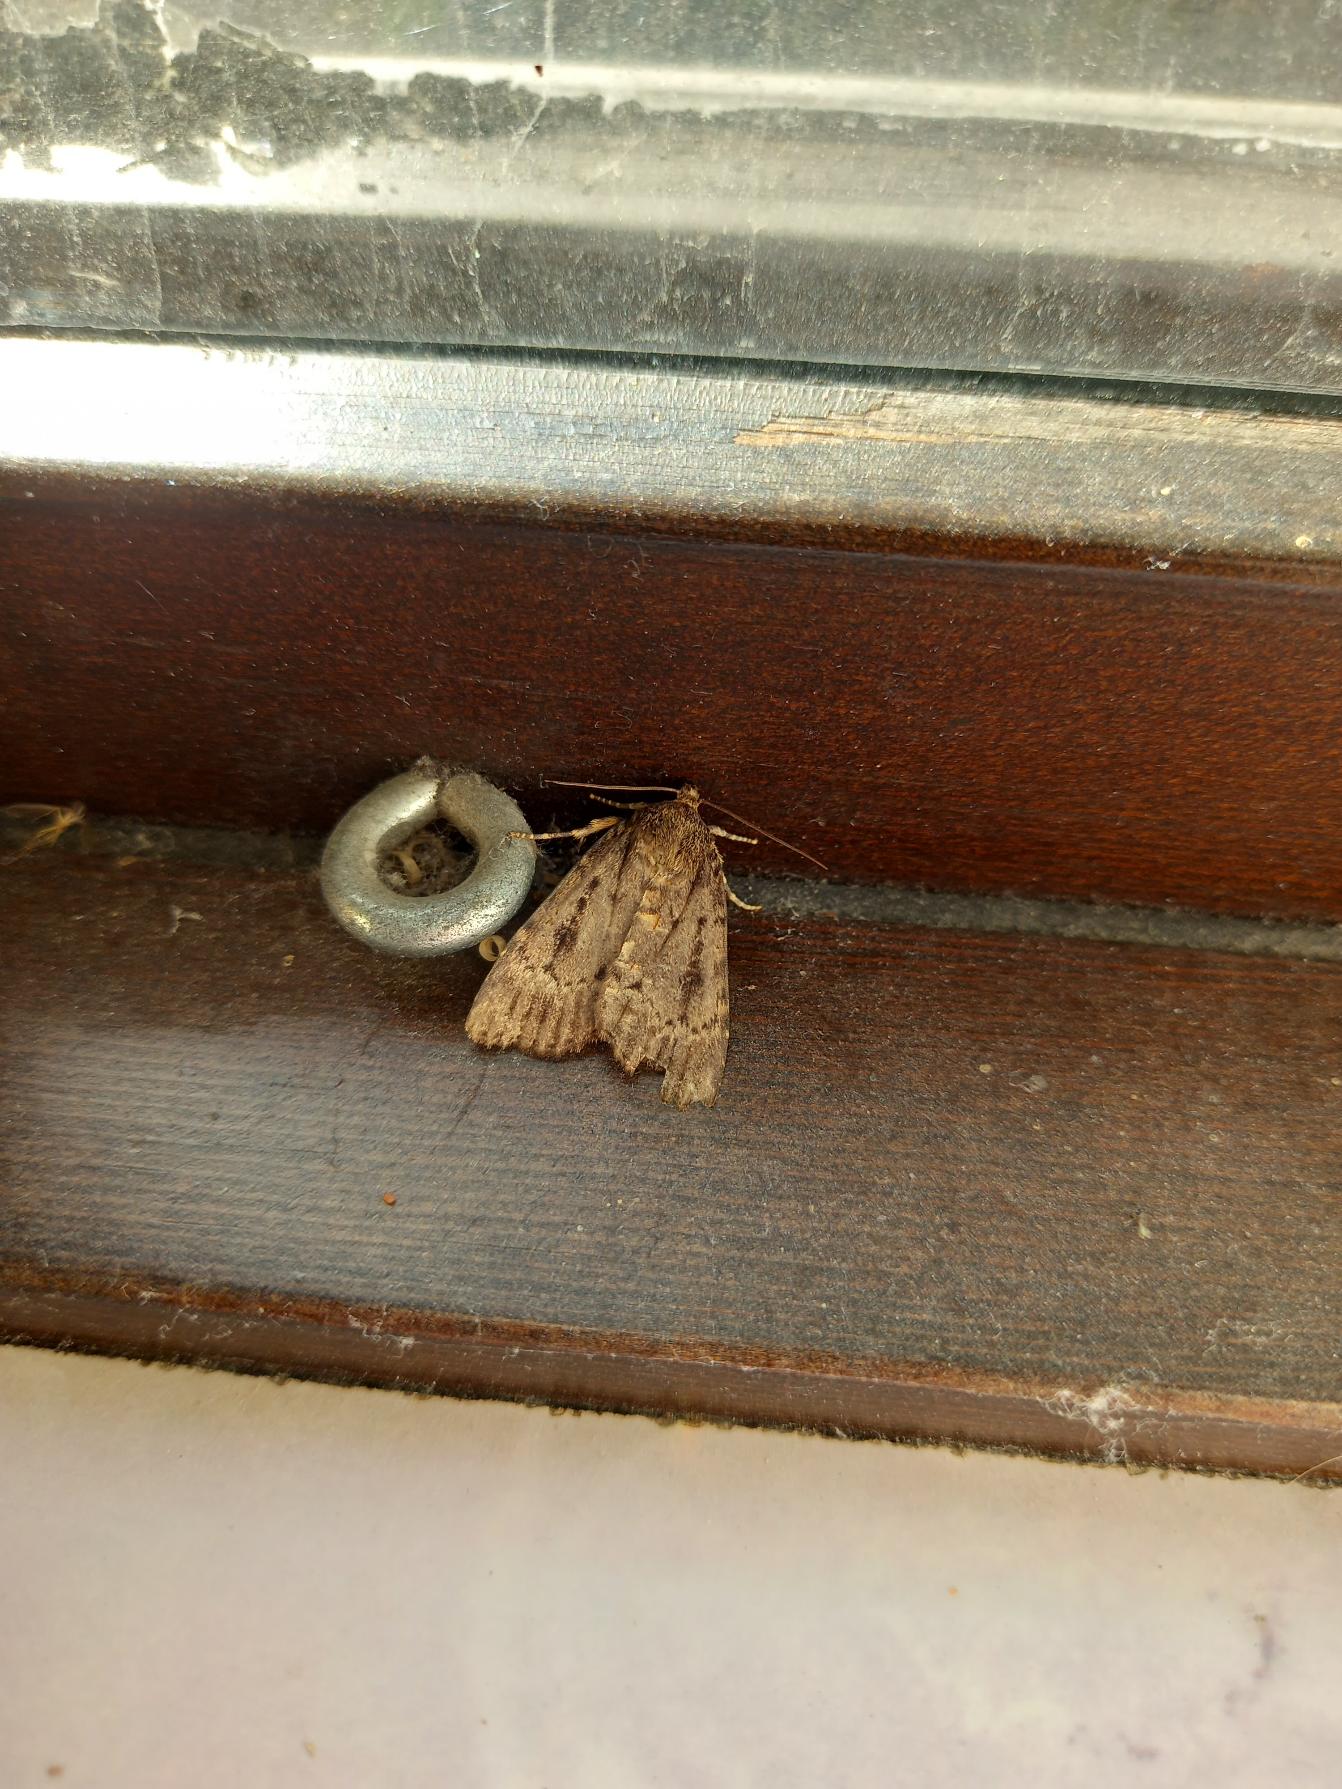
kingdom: Animalia
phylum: Arthropoda
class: Insecta
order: Lepidoptera
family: Noctuidae
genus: Amphipyra
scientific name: Amphipyra pyramidea
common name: Pyramideugle
